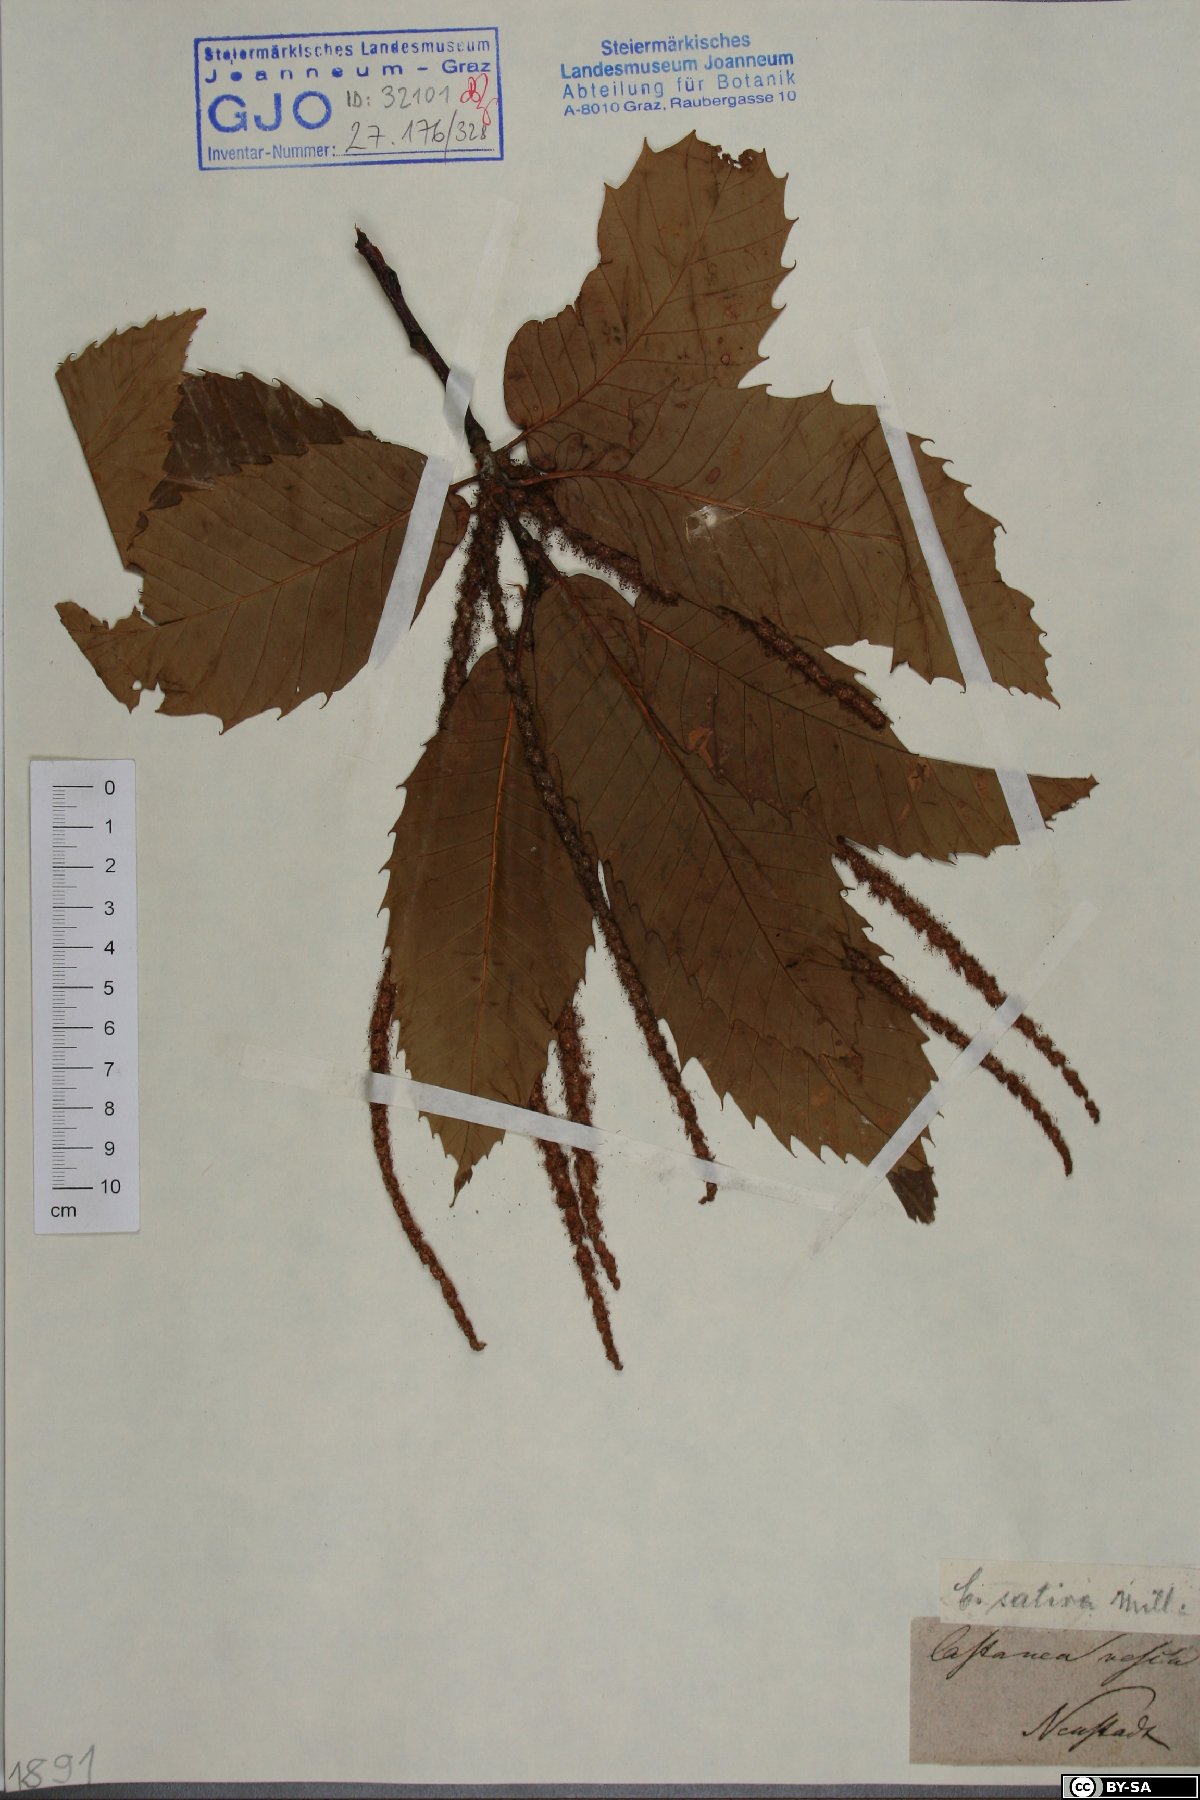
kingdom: Plantae
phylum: Tracheophyta
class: Magnoliopsida
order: Fagales
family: Fagaceae
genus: Castanea
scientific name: Castanea sativa
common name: Sweet chestnut
